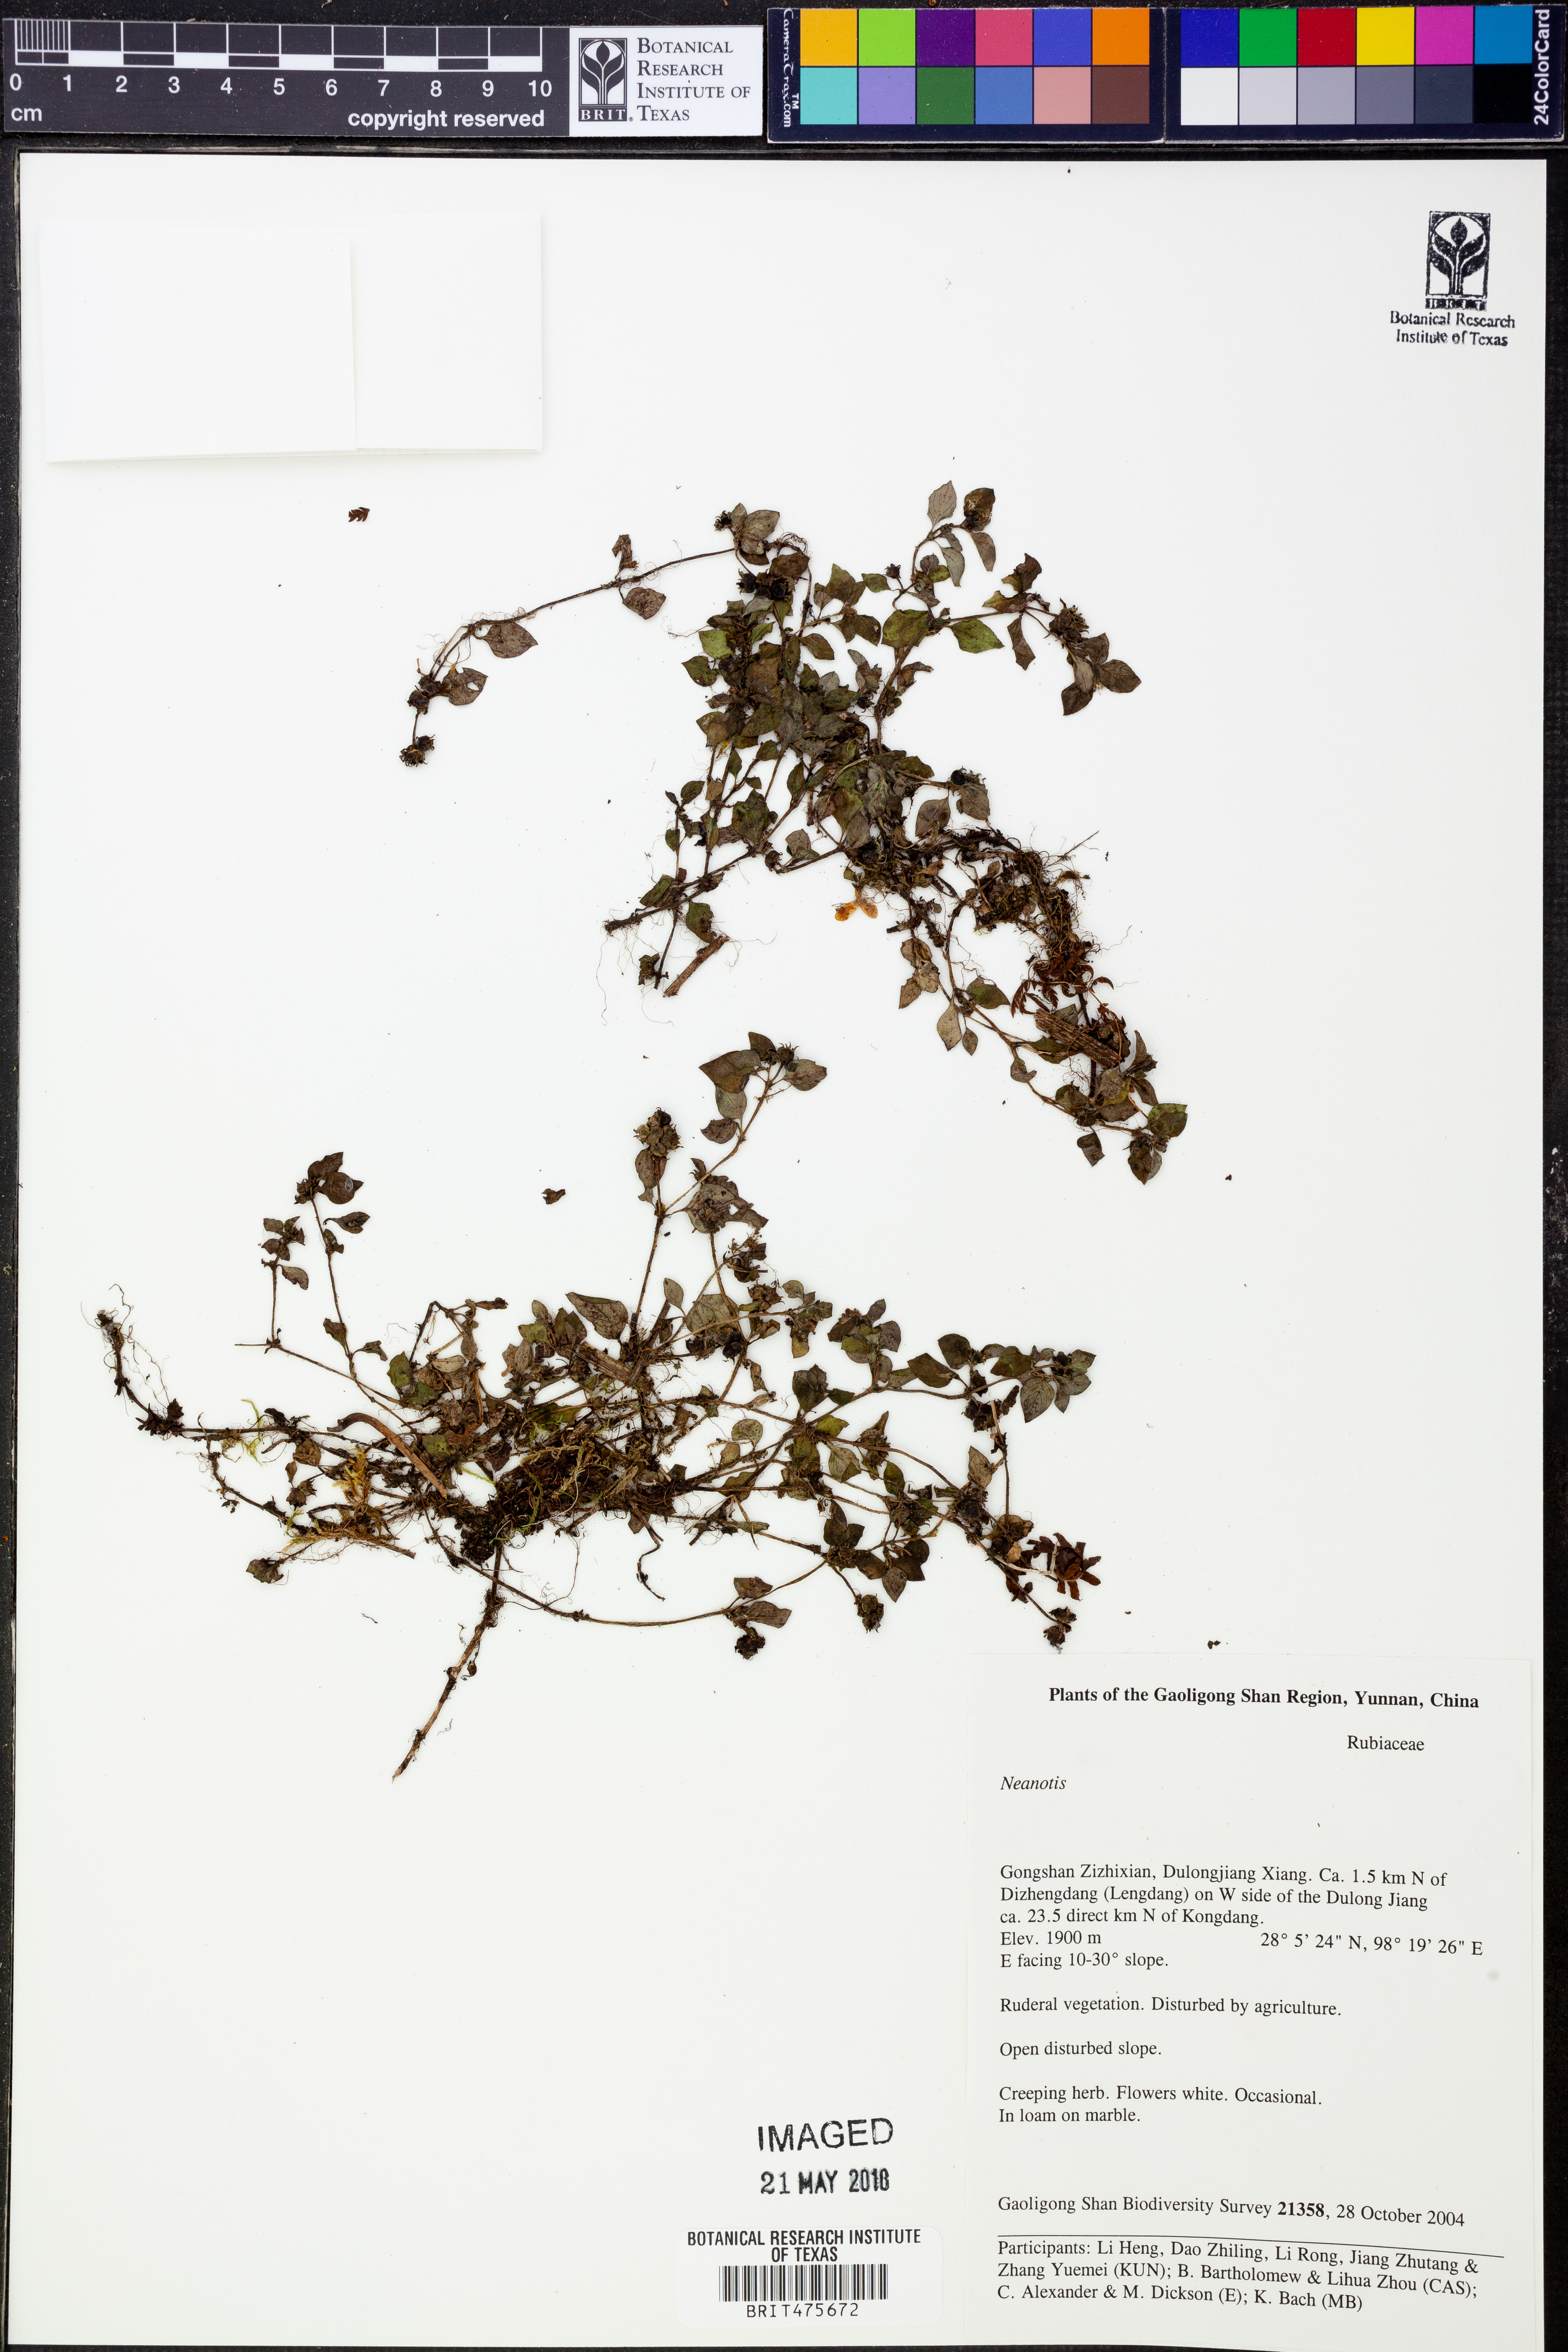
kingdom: Plantae
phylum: Tracheophyta
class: Magnoliopsida
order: Gentianales
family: Rubiaceae
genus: Neanotis
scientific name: Neanotis
